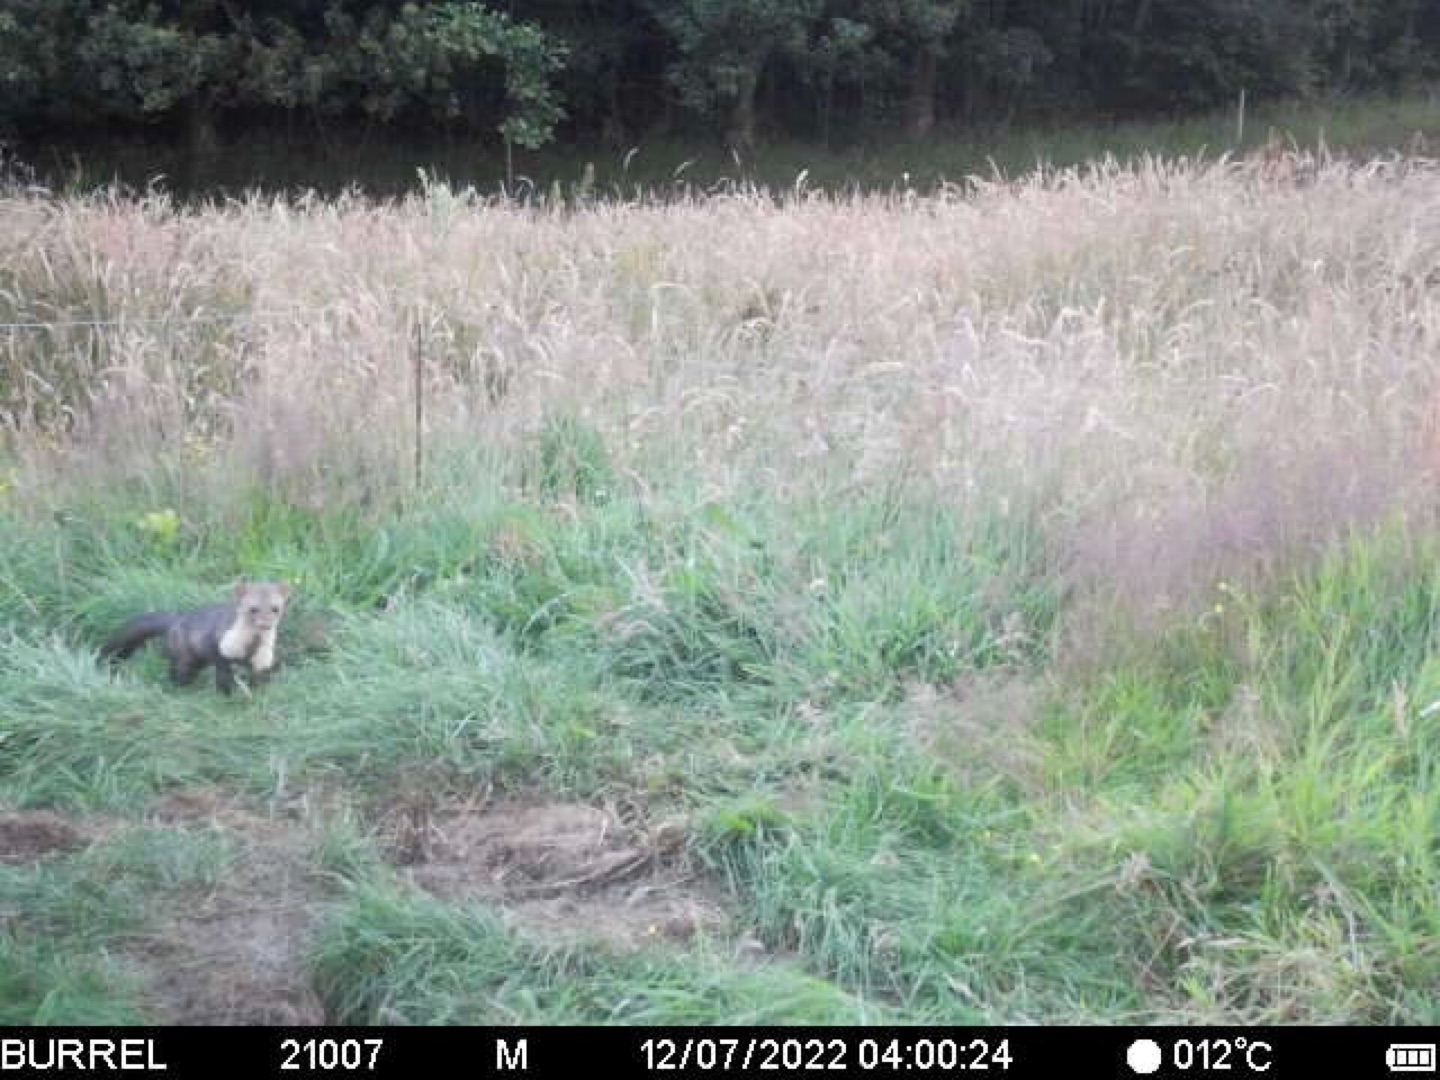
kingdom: Animalia
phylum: Chordata
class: Mammalia
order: Carnivora
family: Mustelidae
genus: Martes
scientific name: Martes foina
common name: Husmår
